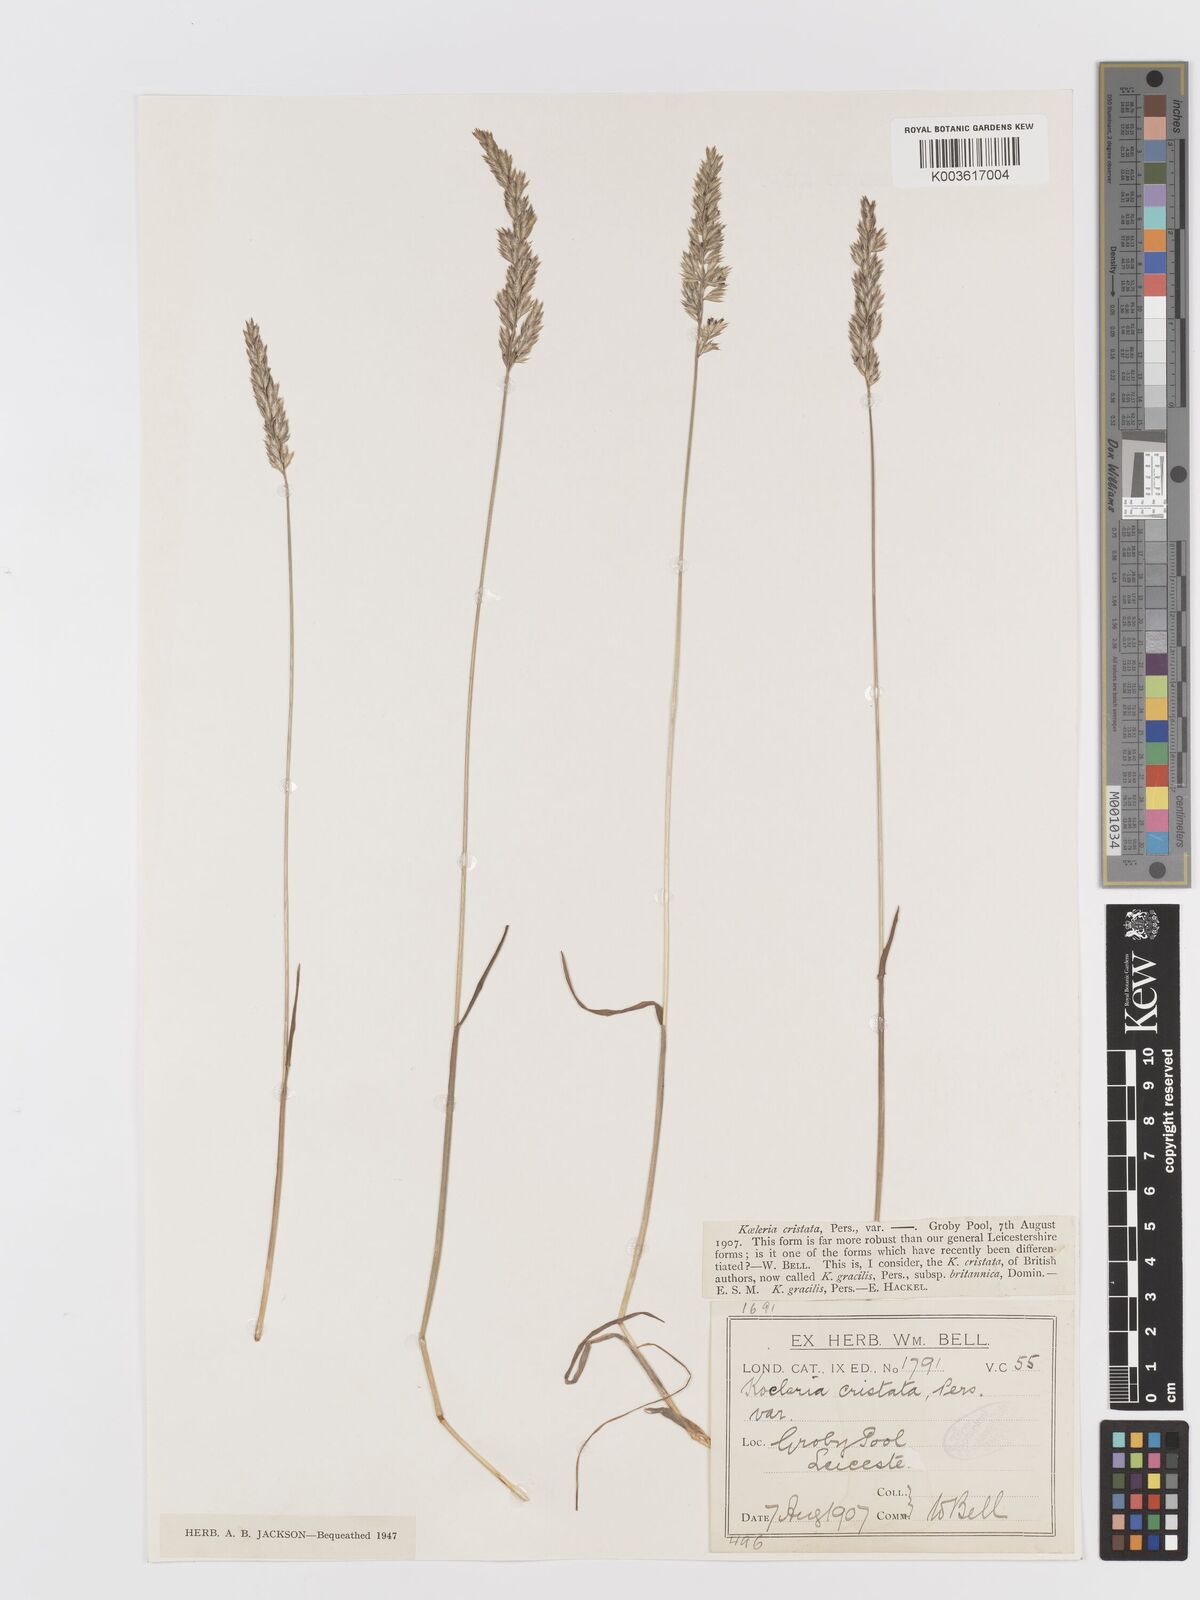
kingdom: Plantae
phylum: Tracheophyta
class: Liliopsida
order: Poales
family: Poaceae
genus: Koeleria
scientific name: Koeleria macrantha
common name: Crested hair-grass
